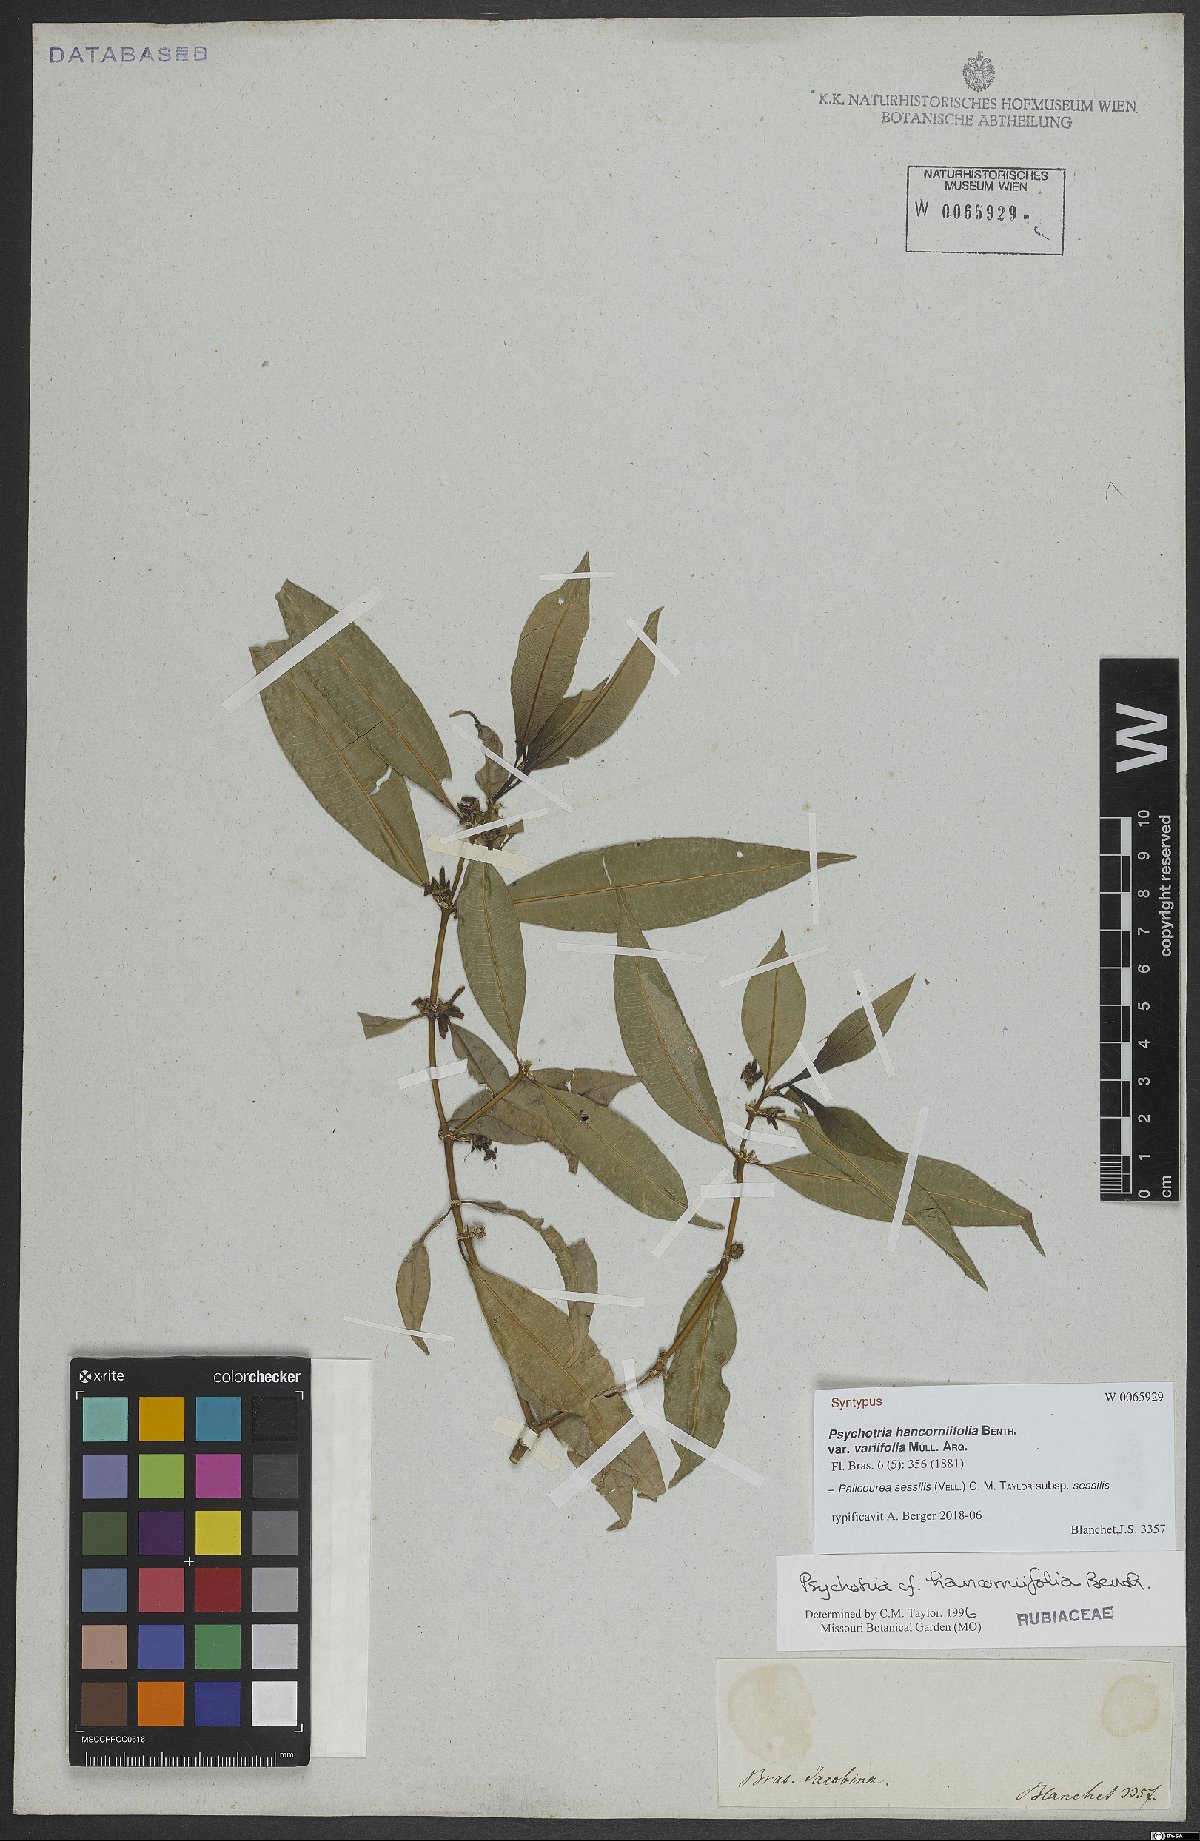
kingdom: Plantae
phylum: Tracheophyta
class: Magnoliopsida
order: Gentianales
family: Rubiaceae
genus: Palicourea
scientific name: Palicourea sessilis
